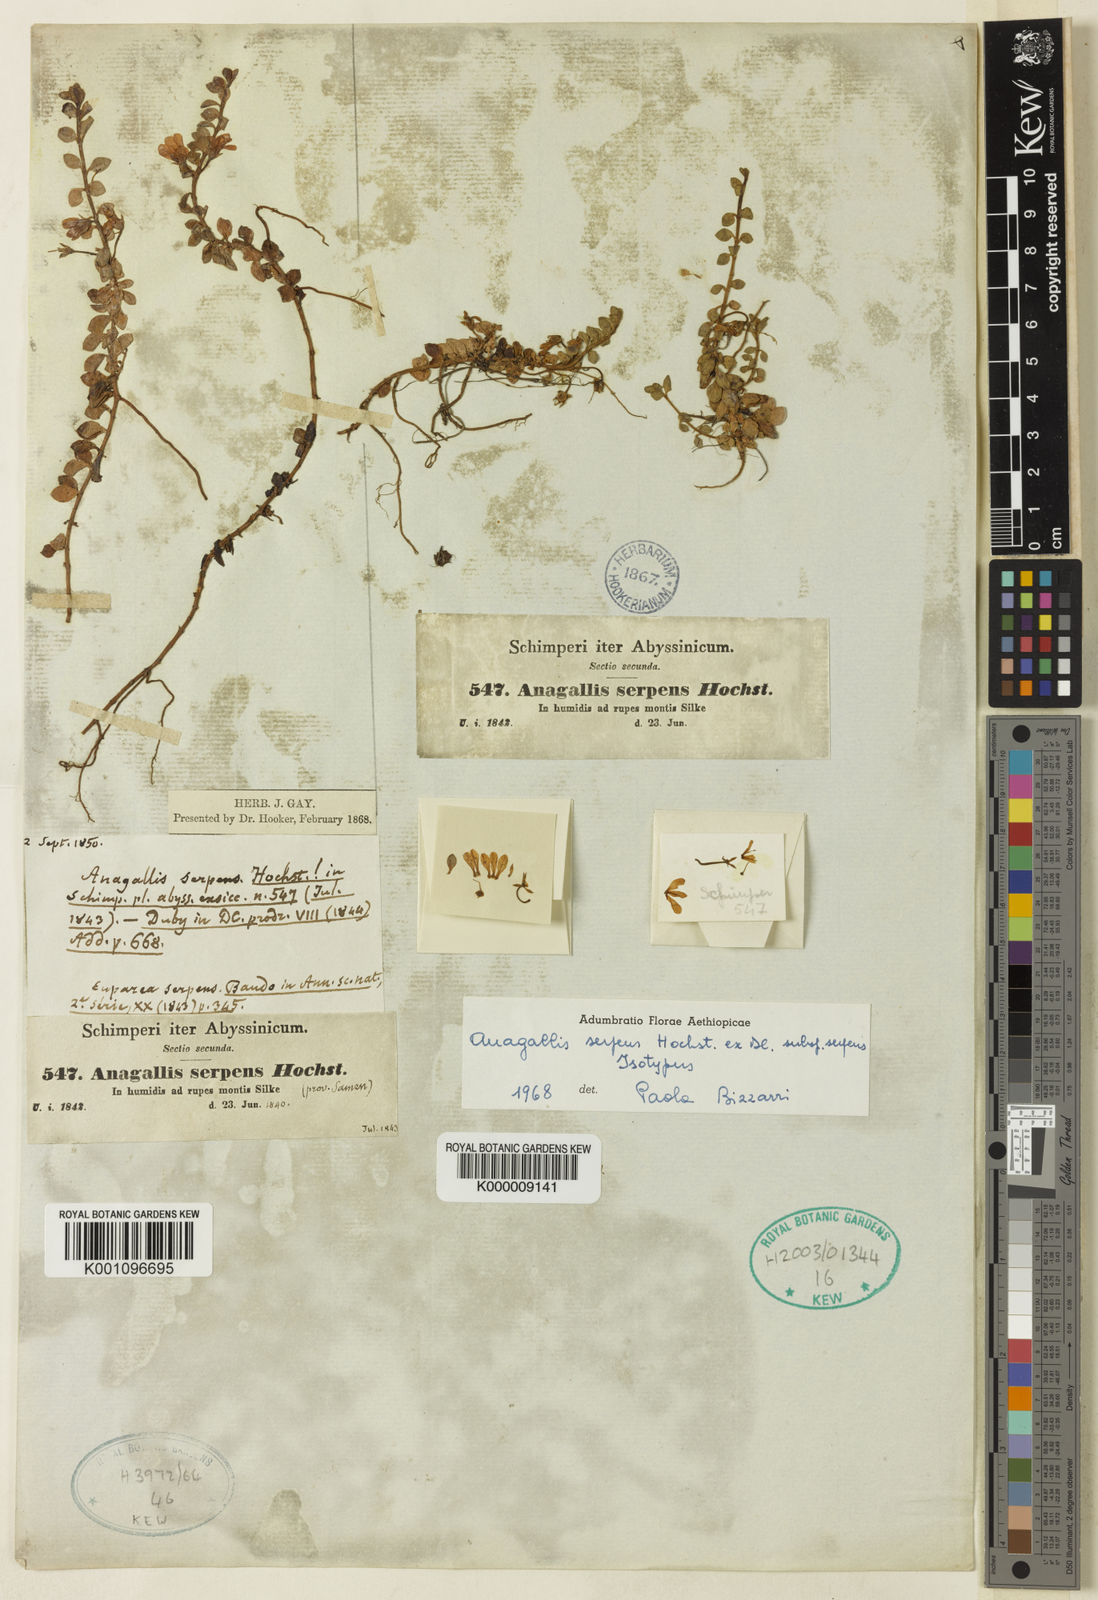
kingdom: Plantae
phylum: Tracheophyta
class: Magnoliopsida
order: Ericales
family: Primulaceae
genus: Lysimachia
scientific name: Lysimachia Anagallis spec
